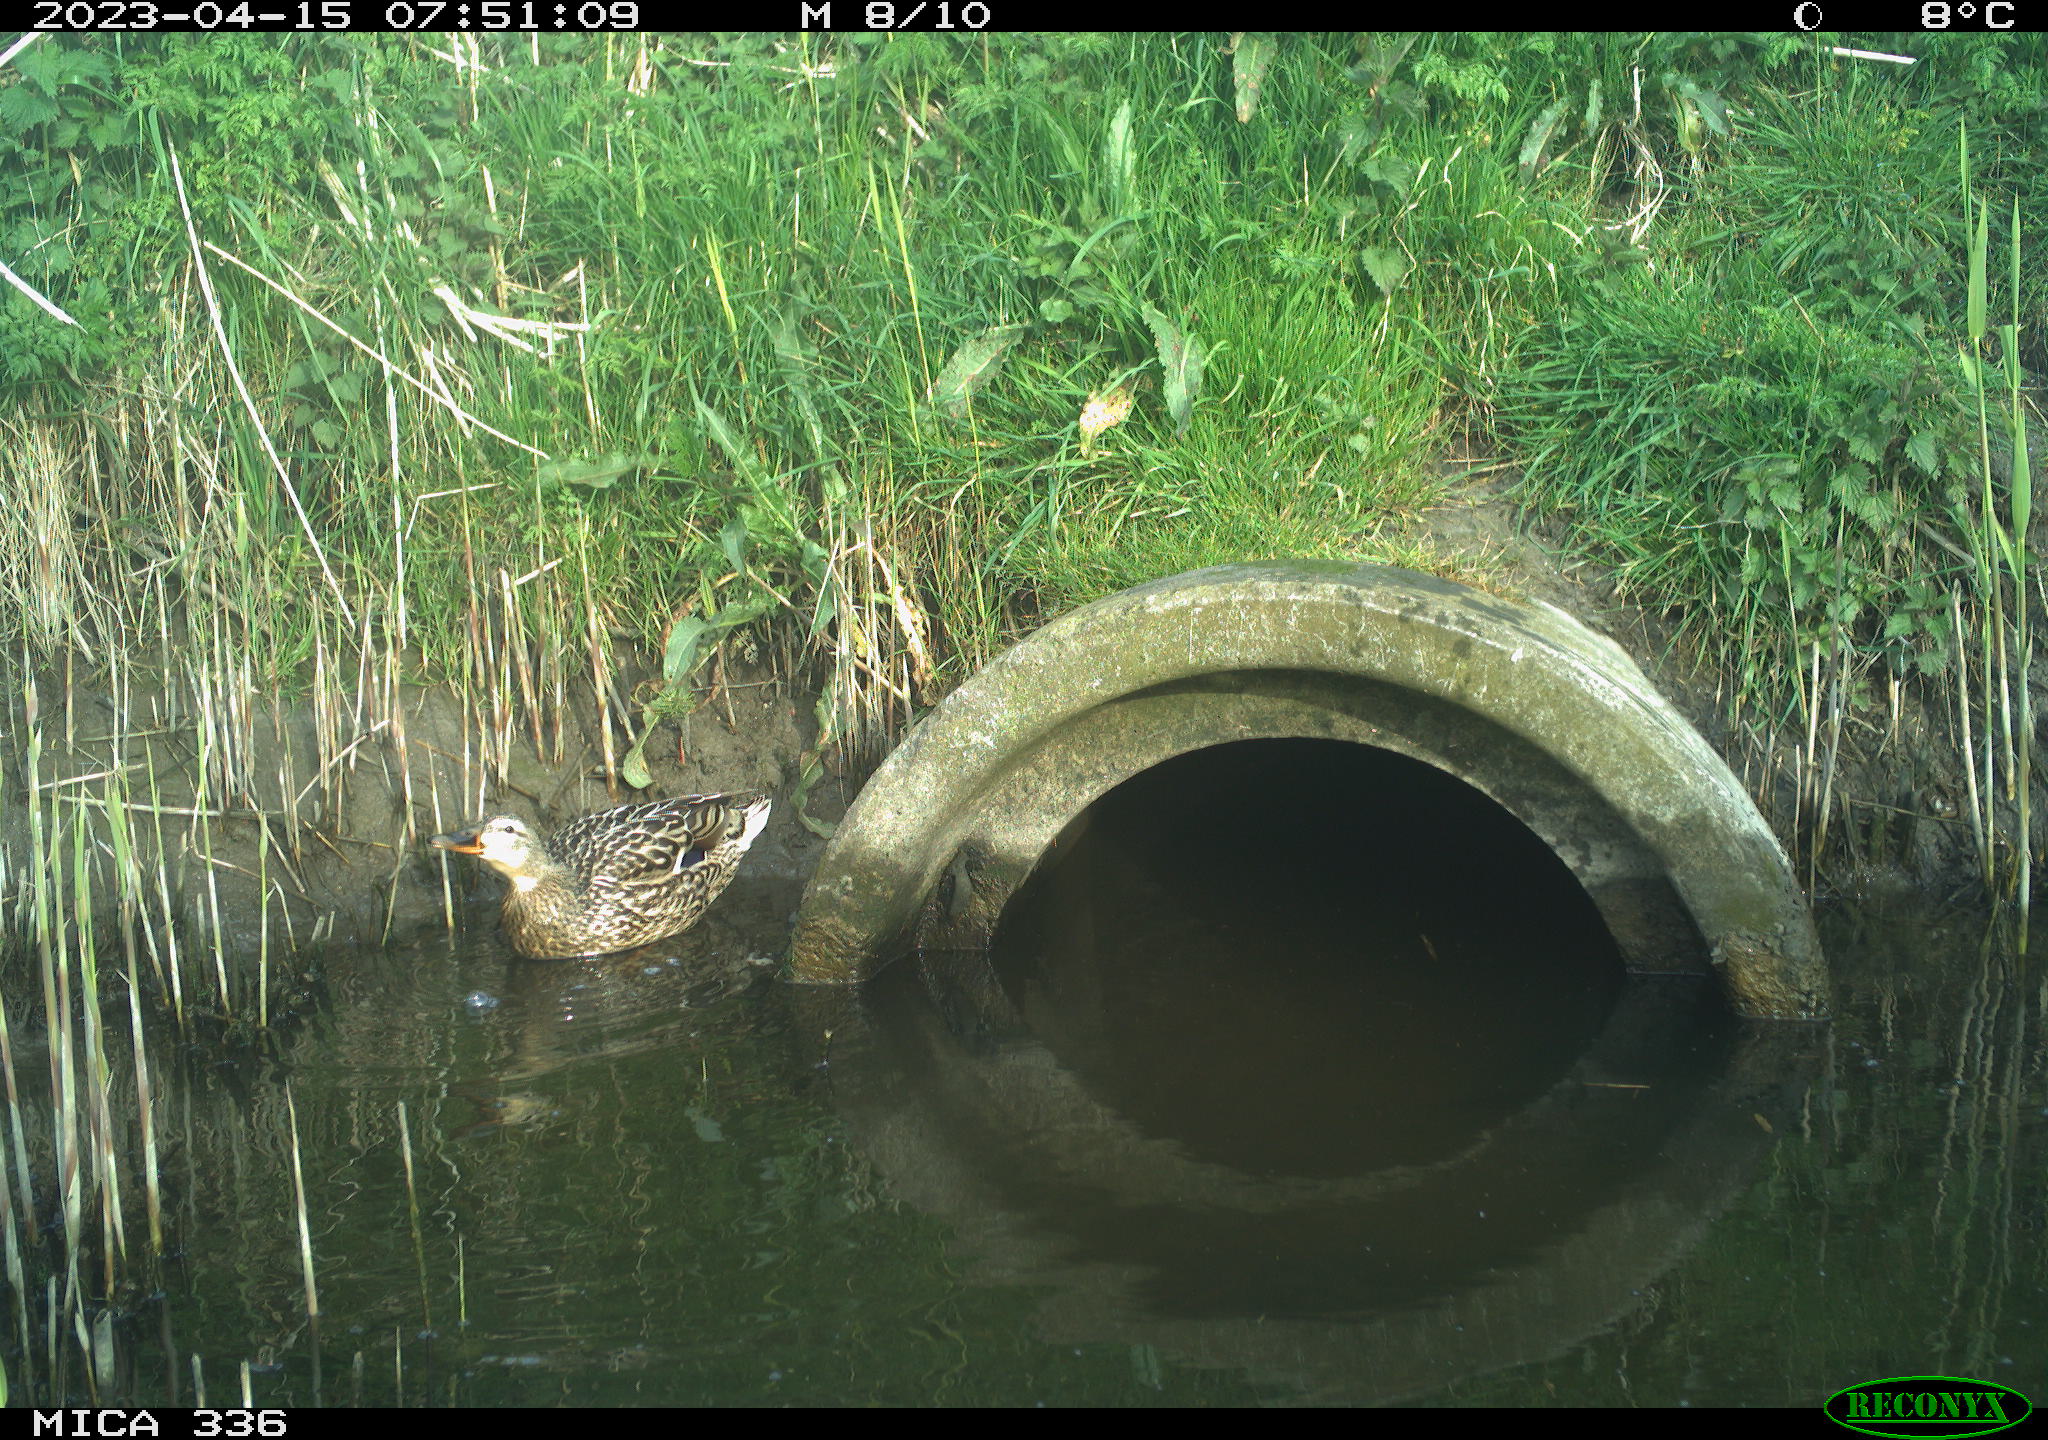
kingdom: Animalia
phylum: Chordata
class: Aves
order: Anseriformes
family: Anatidae
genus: Anas
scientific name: Anas platyrhynchos
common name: Mallard
